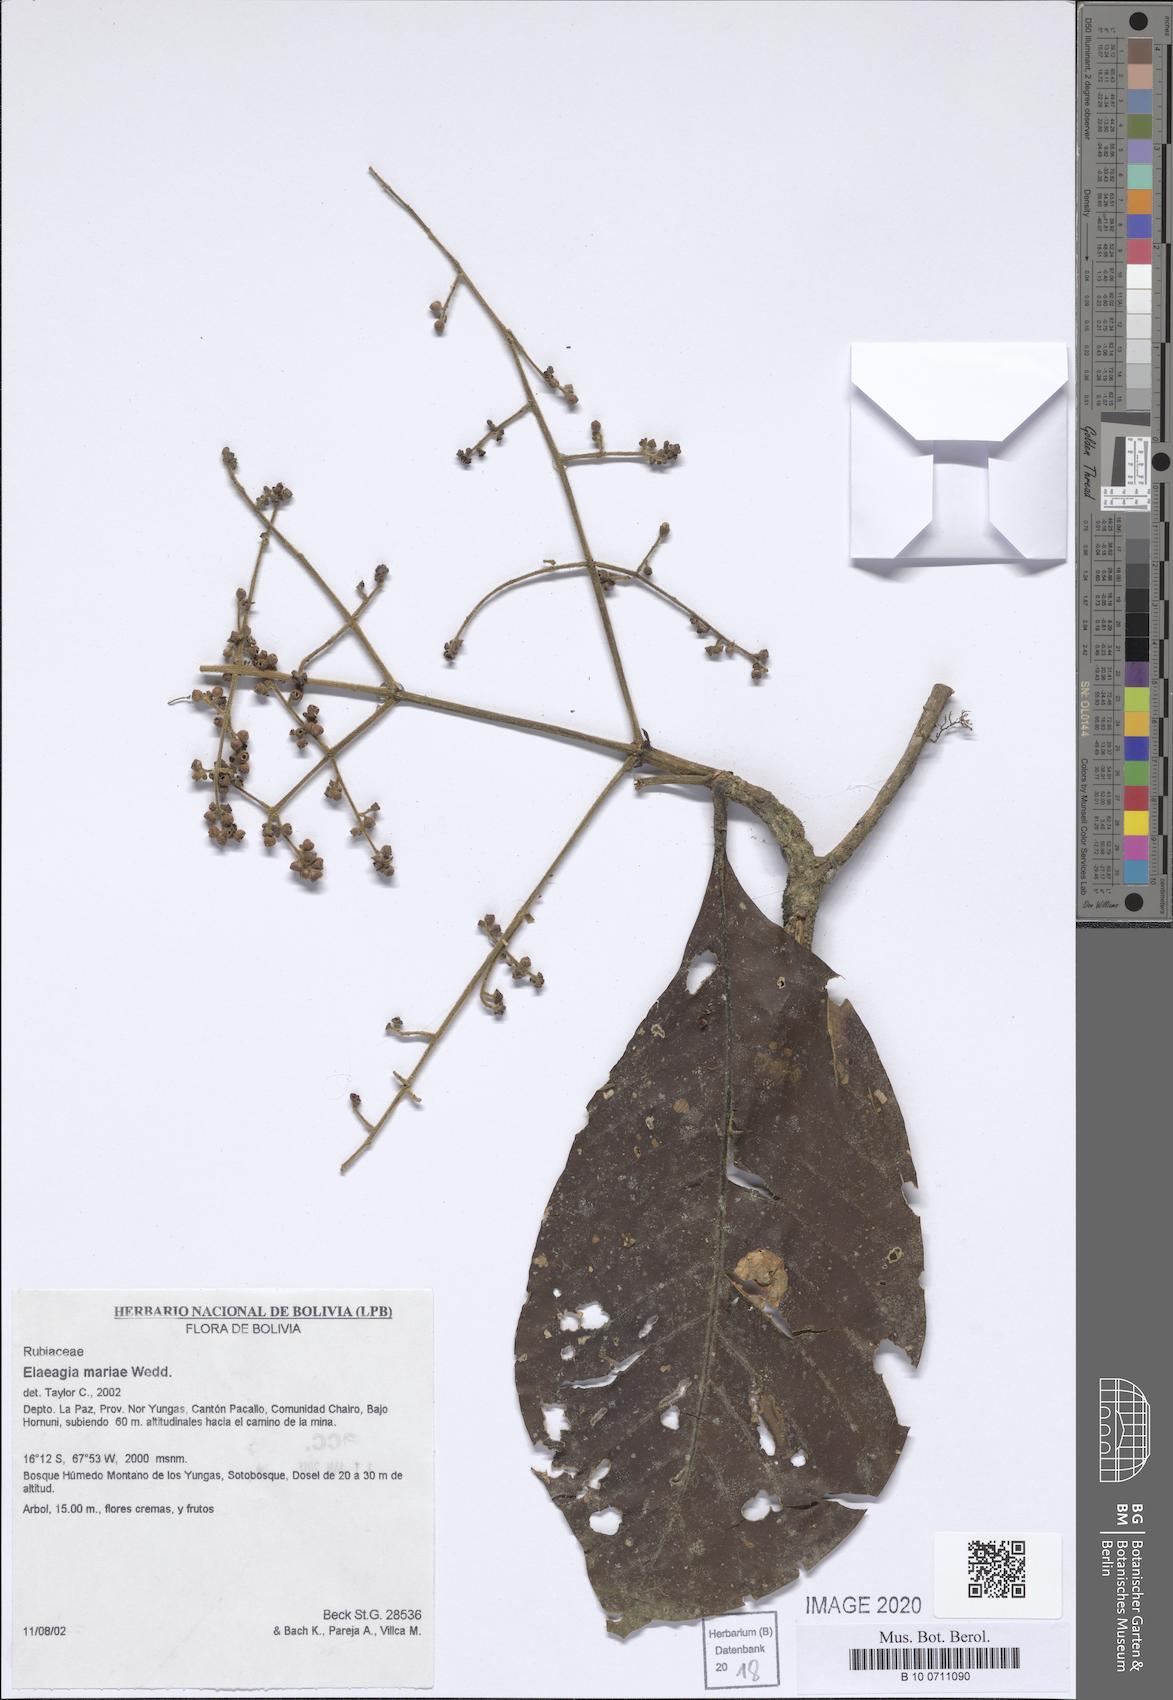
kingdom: Plantae
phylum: Tracheophyta
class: Magnoliopsida
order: Gentianales
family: Rubiaceae
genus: Elaeagia
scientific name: Elaeagia mariae
